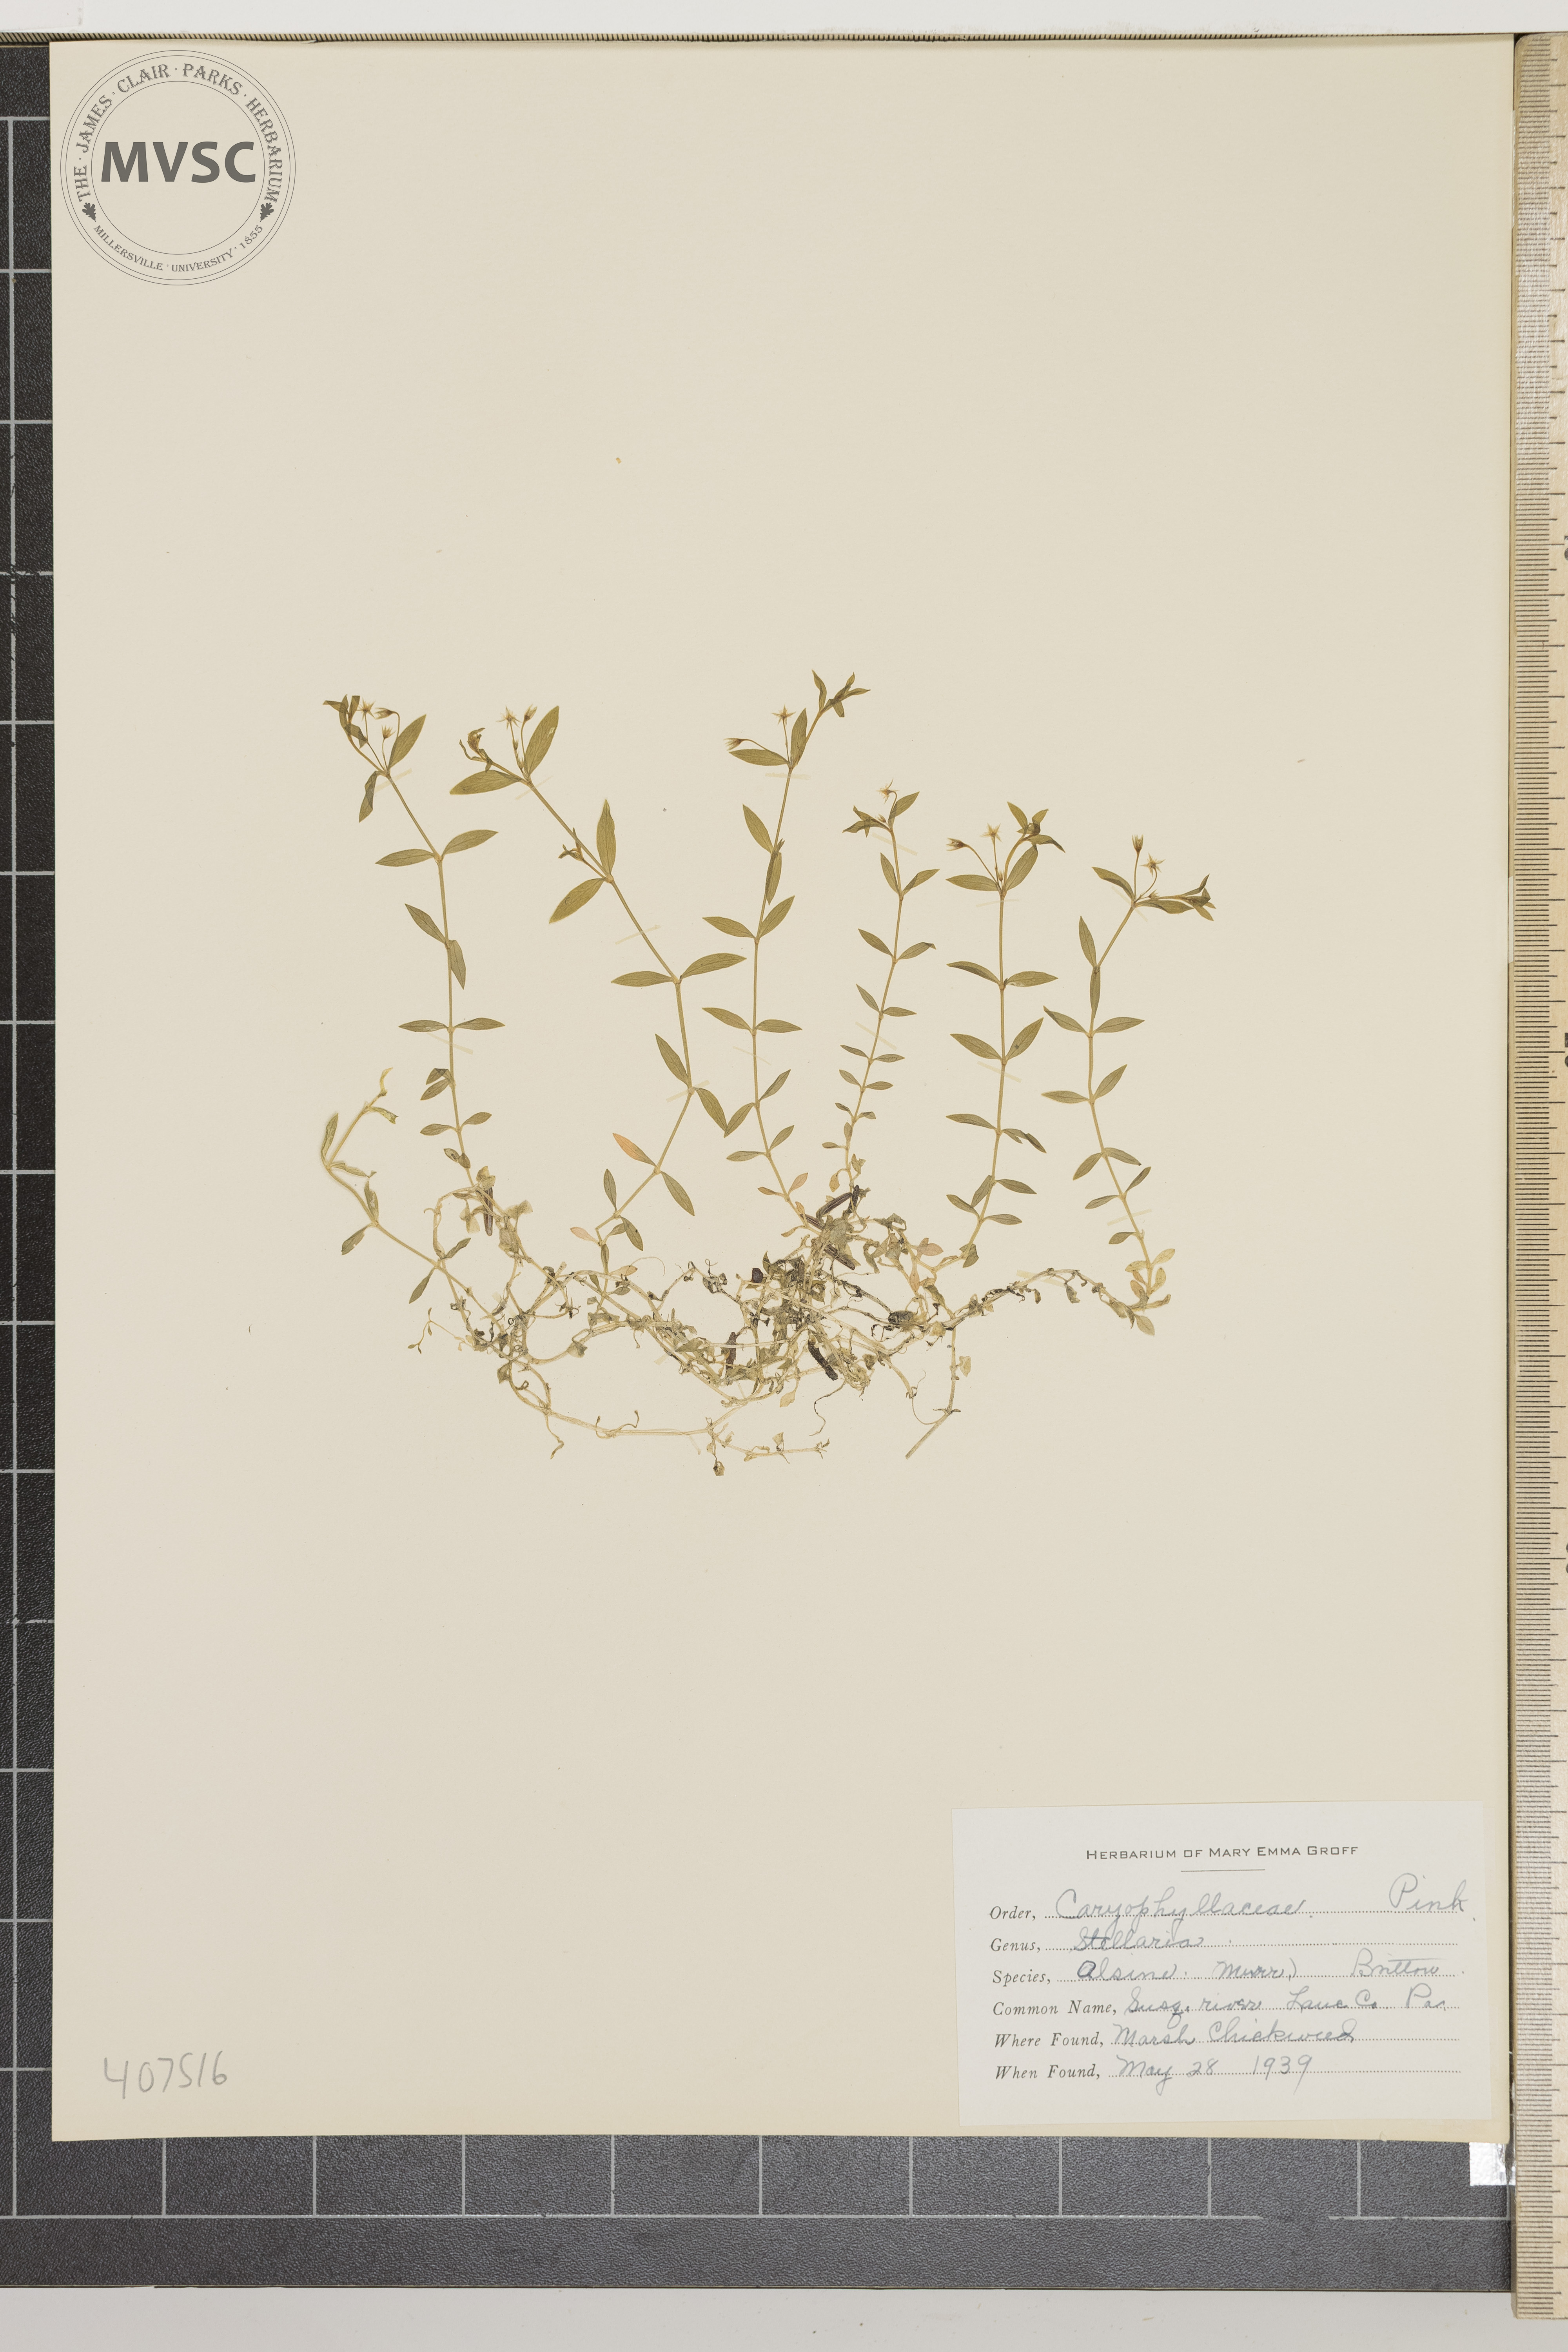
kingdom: Plantae
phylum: Tracheophyta
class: Magnoliopsida
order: Caryophyllales
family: Caryophyllaceae
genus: Stellaria
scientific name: Stellaria alsine
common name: Marsh chickweed
